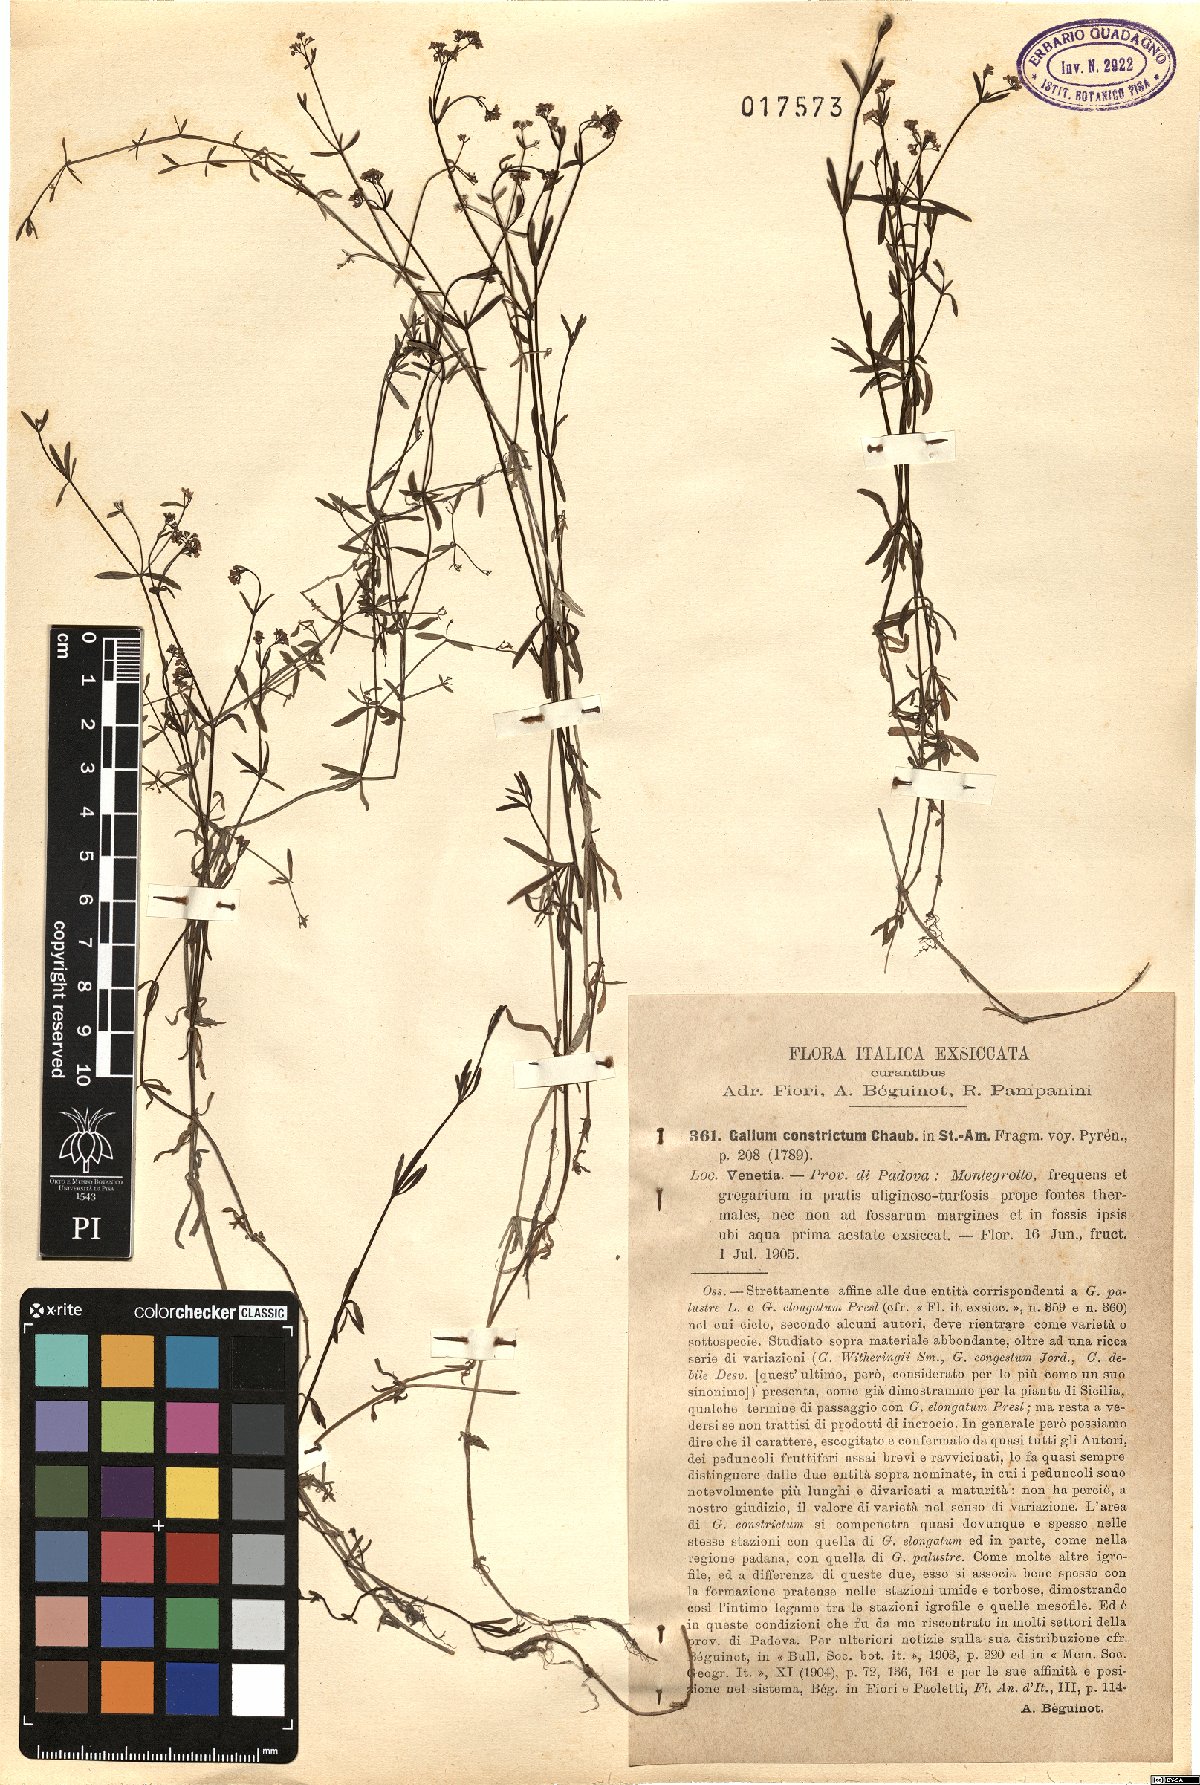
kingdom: Plantae
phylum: Tracheophyta
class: Magnoliopsida
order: Gentianales
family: Rubiaceae
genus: Galium
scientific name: Galium debile
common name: Slender marsh-bedstraw
